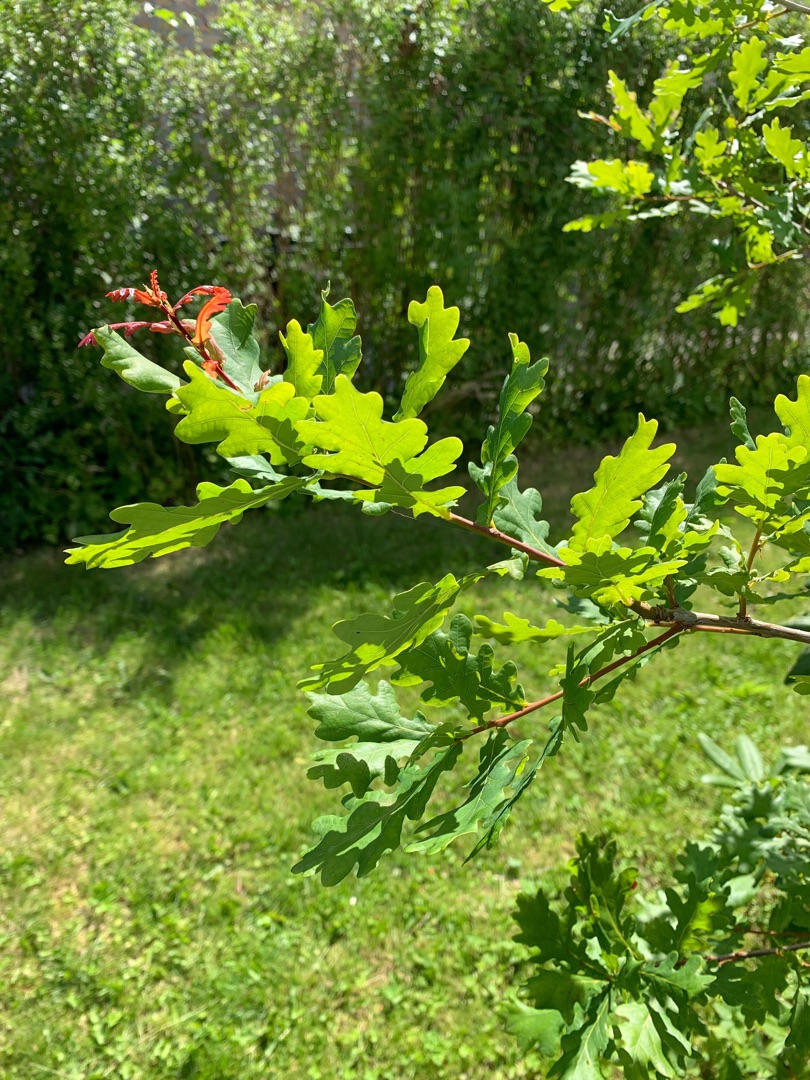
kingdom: Plantae
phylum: Tracheophyta
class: Magnoliopsida
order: Fagales
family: Fagaceae
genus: Quercus
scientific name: Quercus robur
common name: Stilk-eg/almindelig eg
